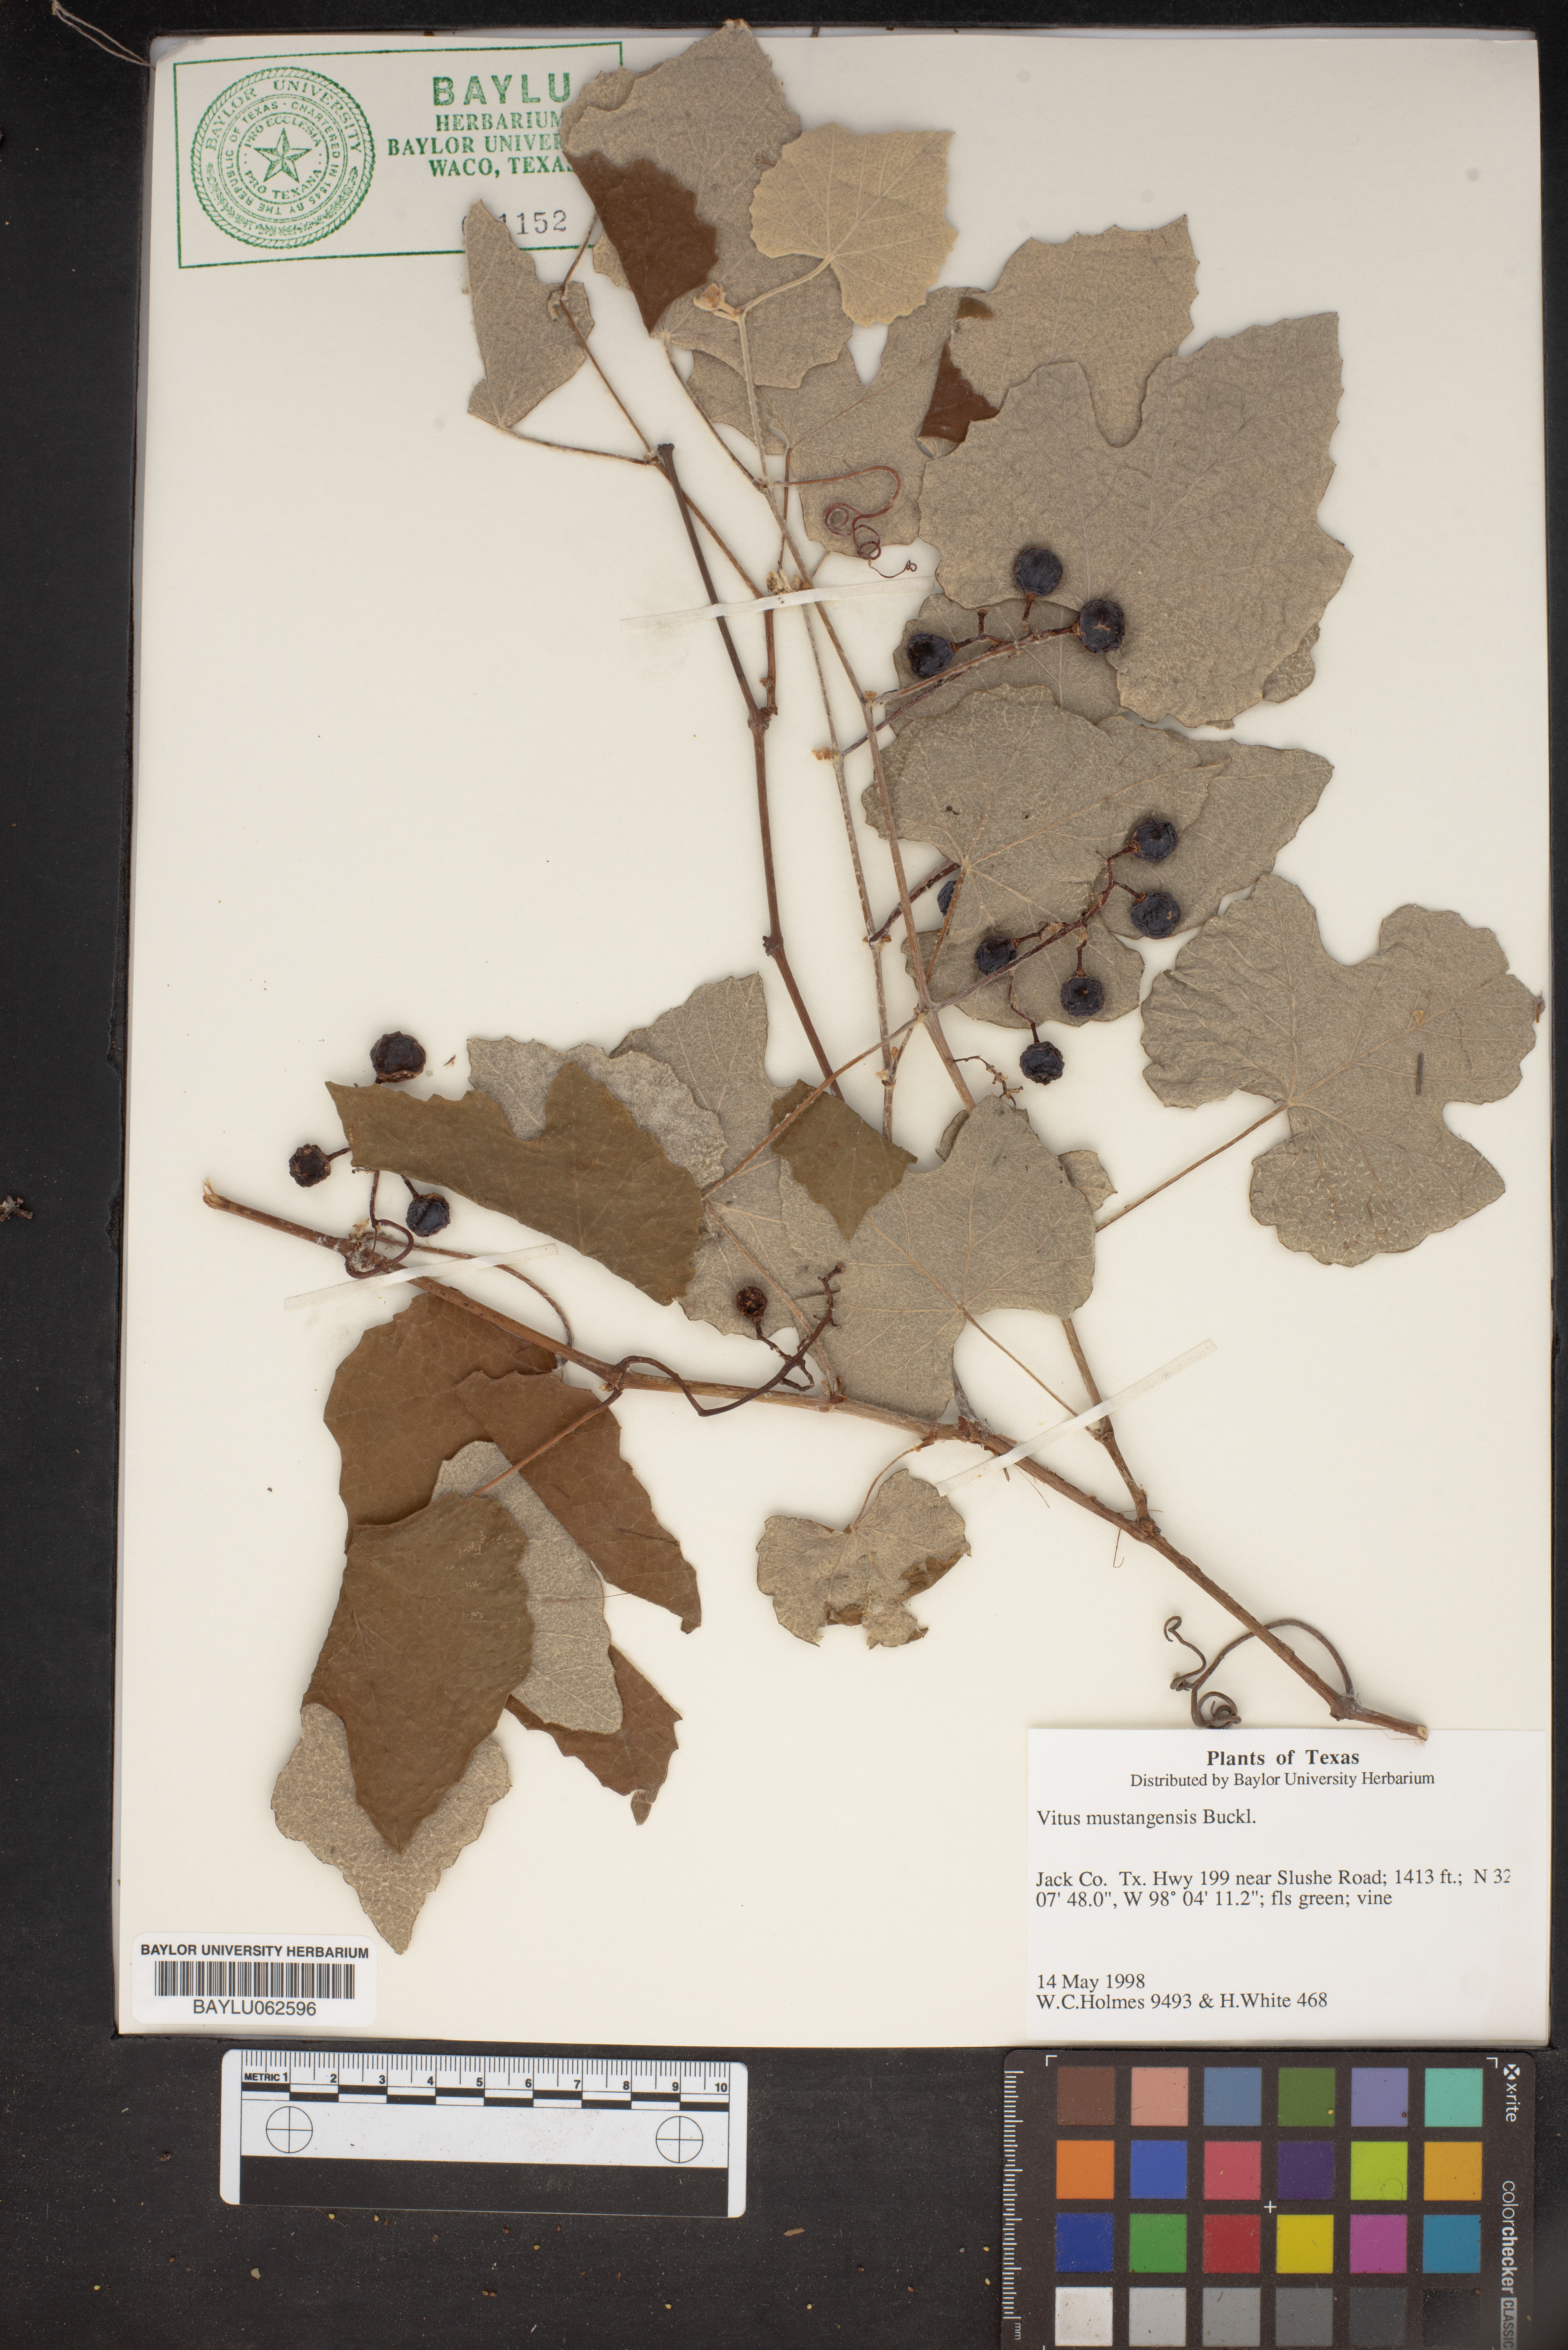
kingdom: Plantae
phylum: Tracheophyta
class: Magnoliopsida
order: Vitales
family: Vitaceae
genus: Vitis
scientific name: Vitis mustangensis
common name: Mustang grape
